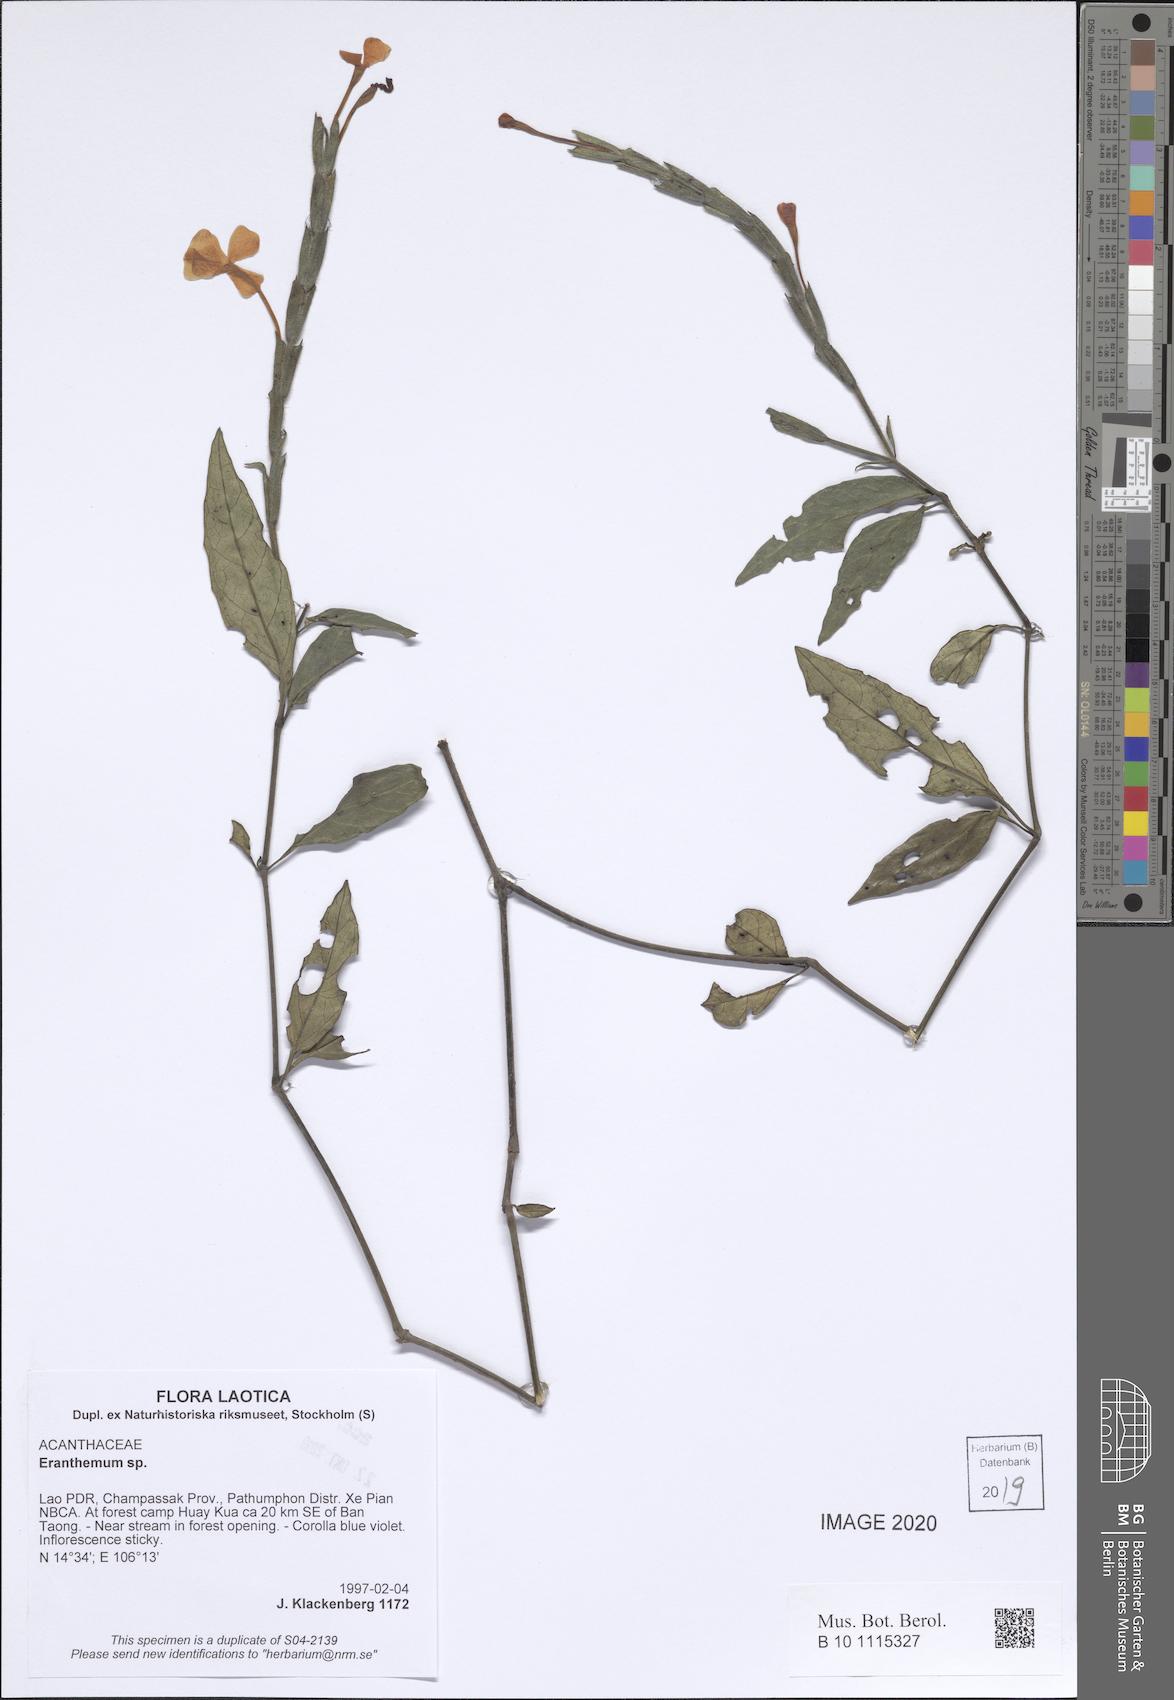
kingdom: Plantae
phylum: Tracheophyta
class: Magnoliopsida
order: Lamiales
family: Acanthaceae
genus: Eranthemum
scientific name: Eranthemum
